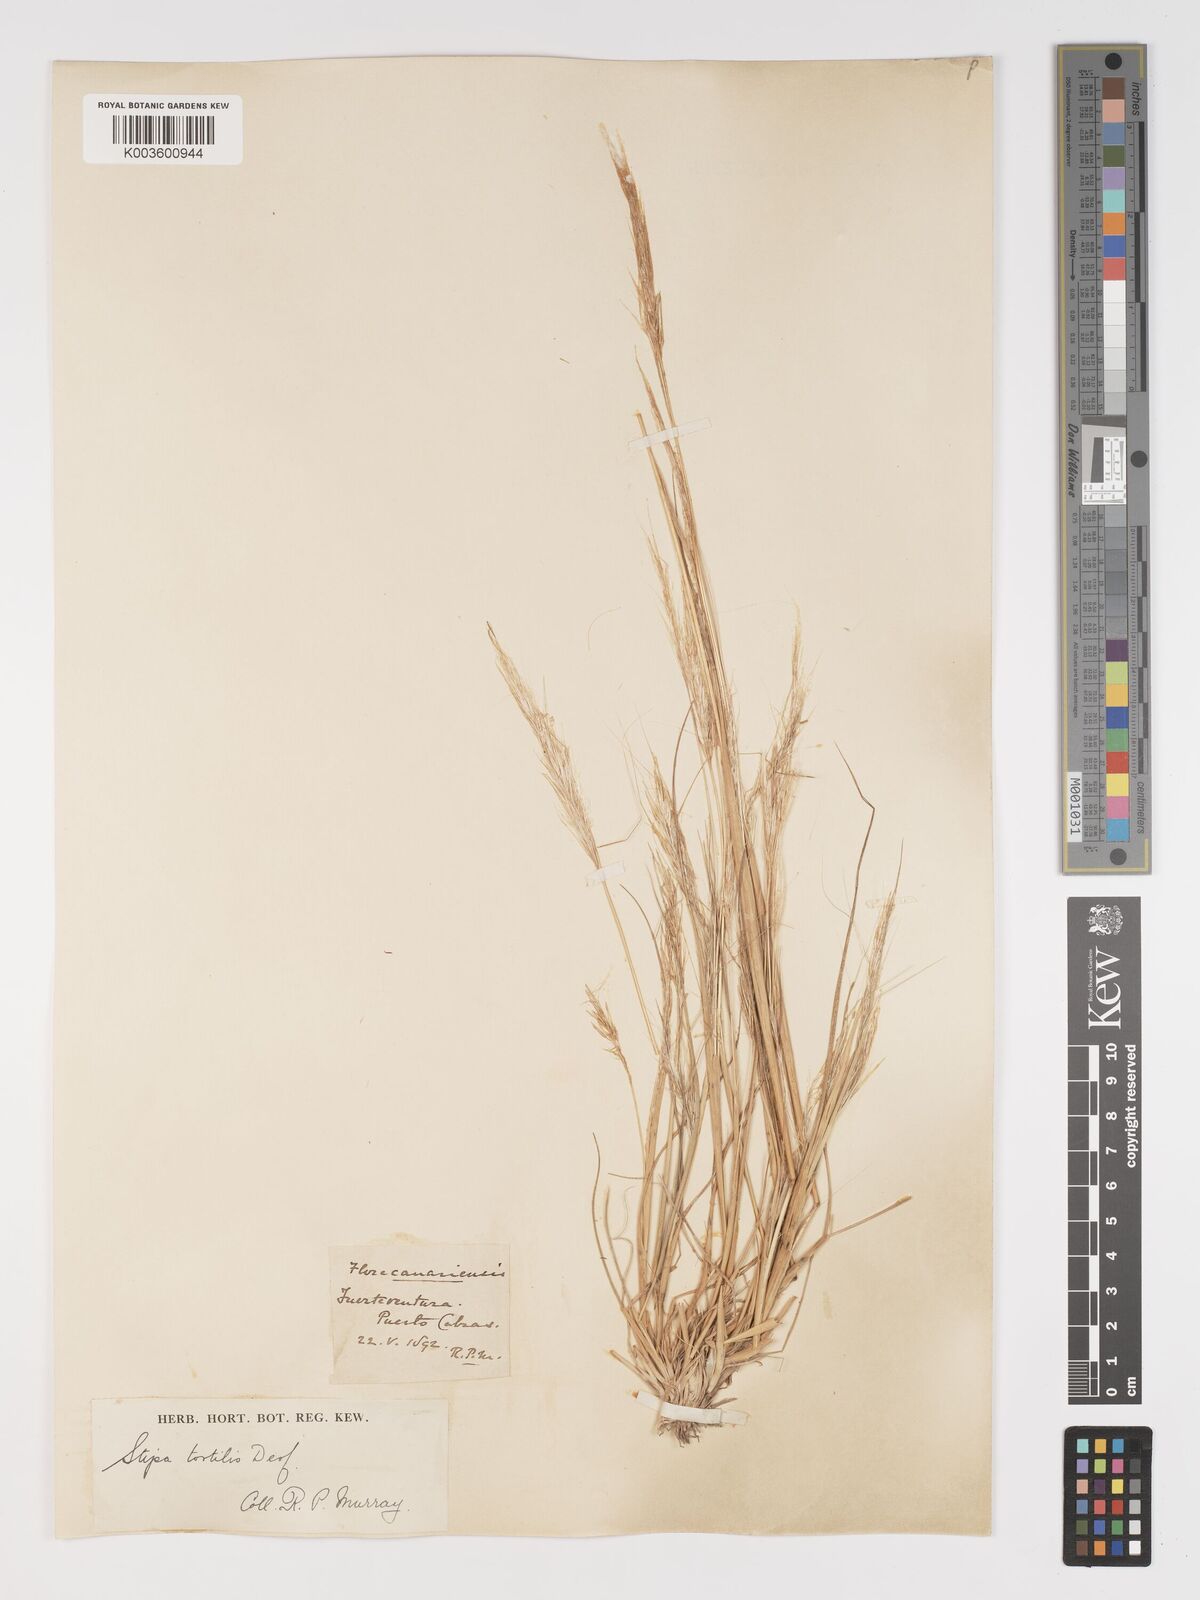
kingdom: Plantae
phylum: Tracheophyta
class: Liliopsida
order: Poales
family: Poaceae
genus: Stipa
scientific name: Stipa dregeana
